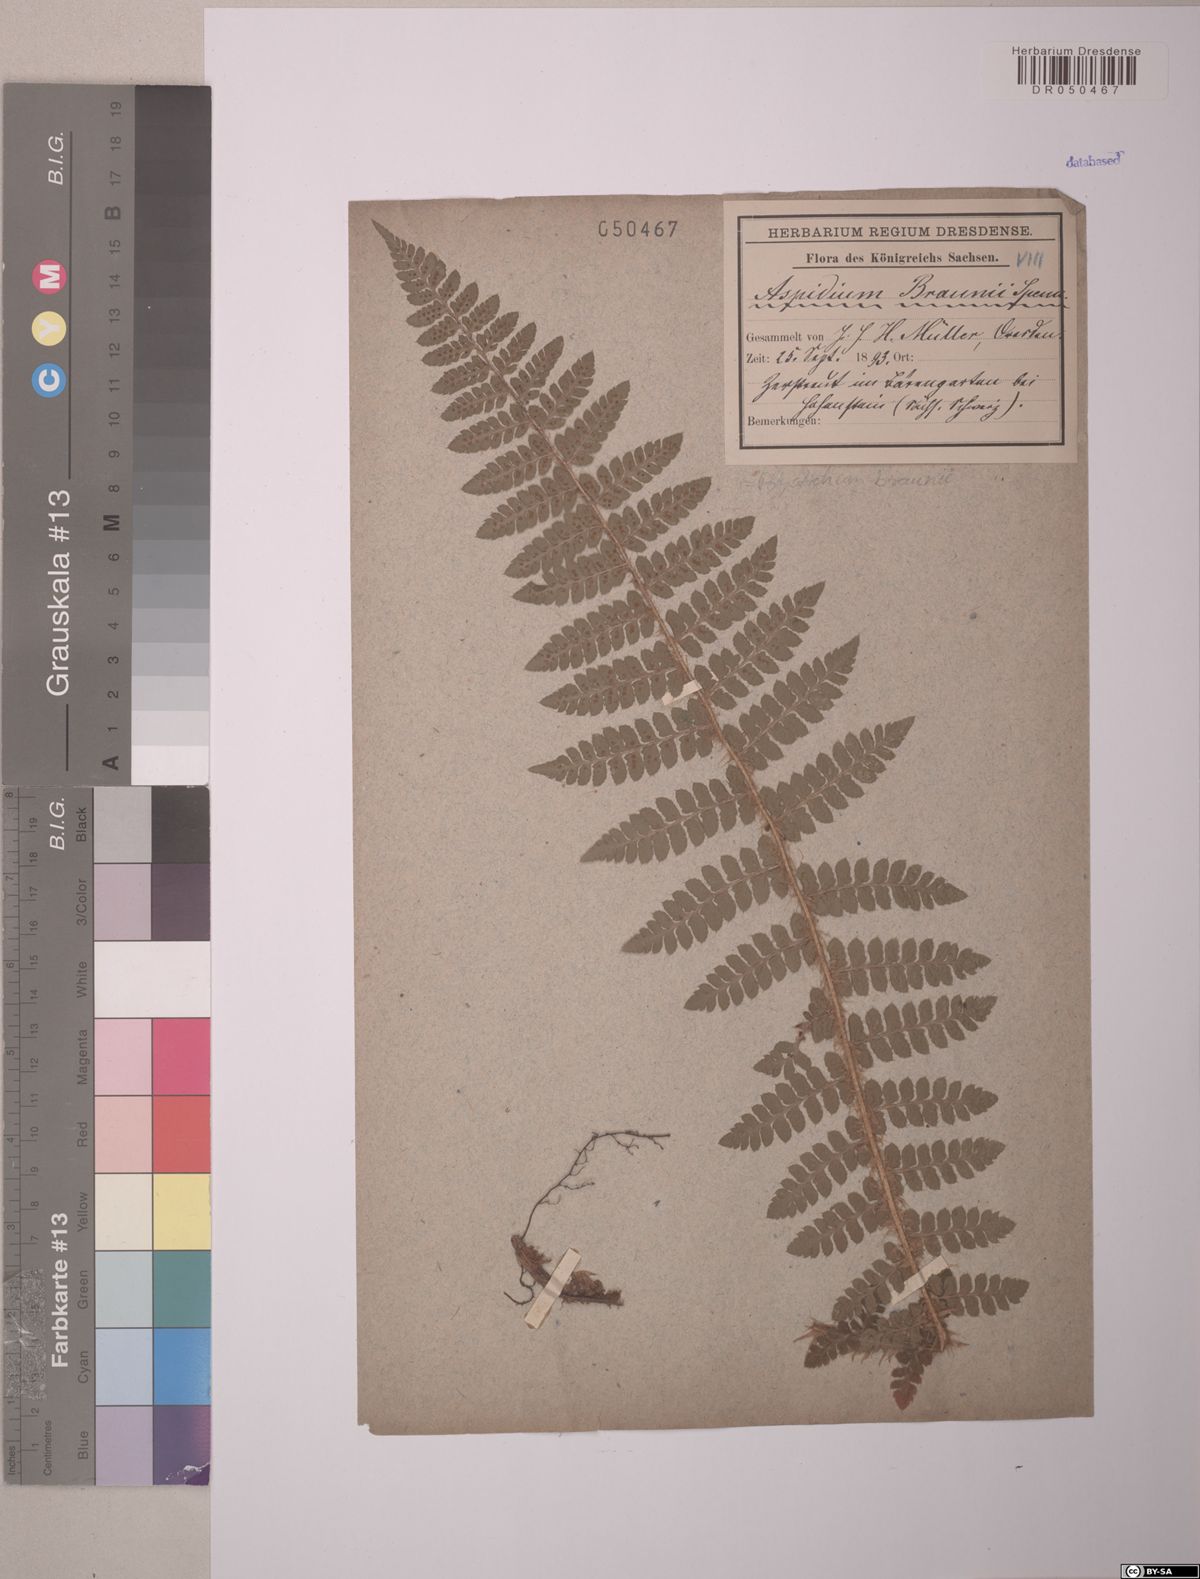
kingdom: Plantae
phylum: Tracheophyta
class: Polypodiopsida
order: Polypodiales
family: Dryopteridaceae
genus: Polystichum
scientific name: Polystichum braunii
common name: Braun's holly fern
